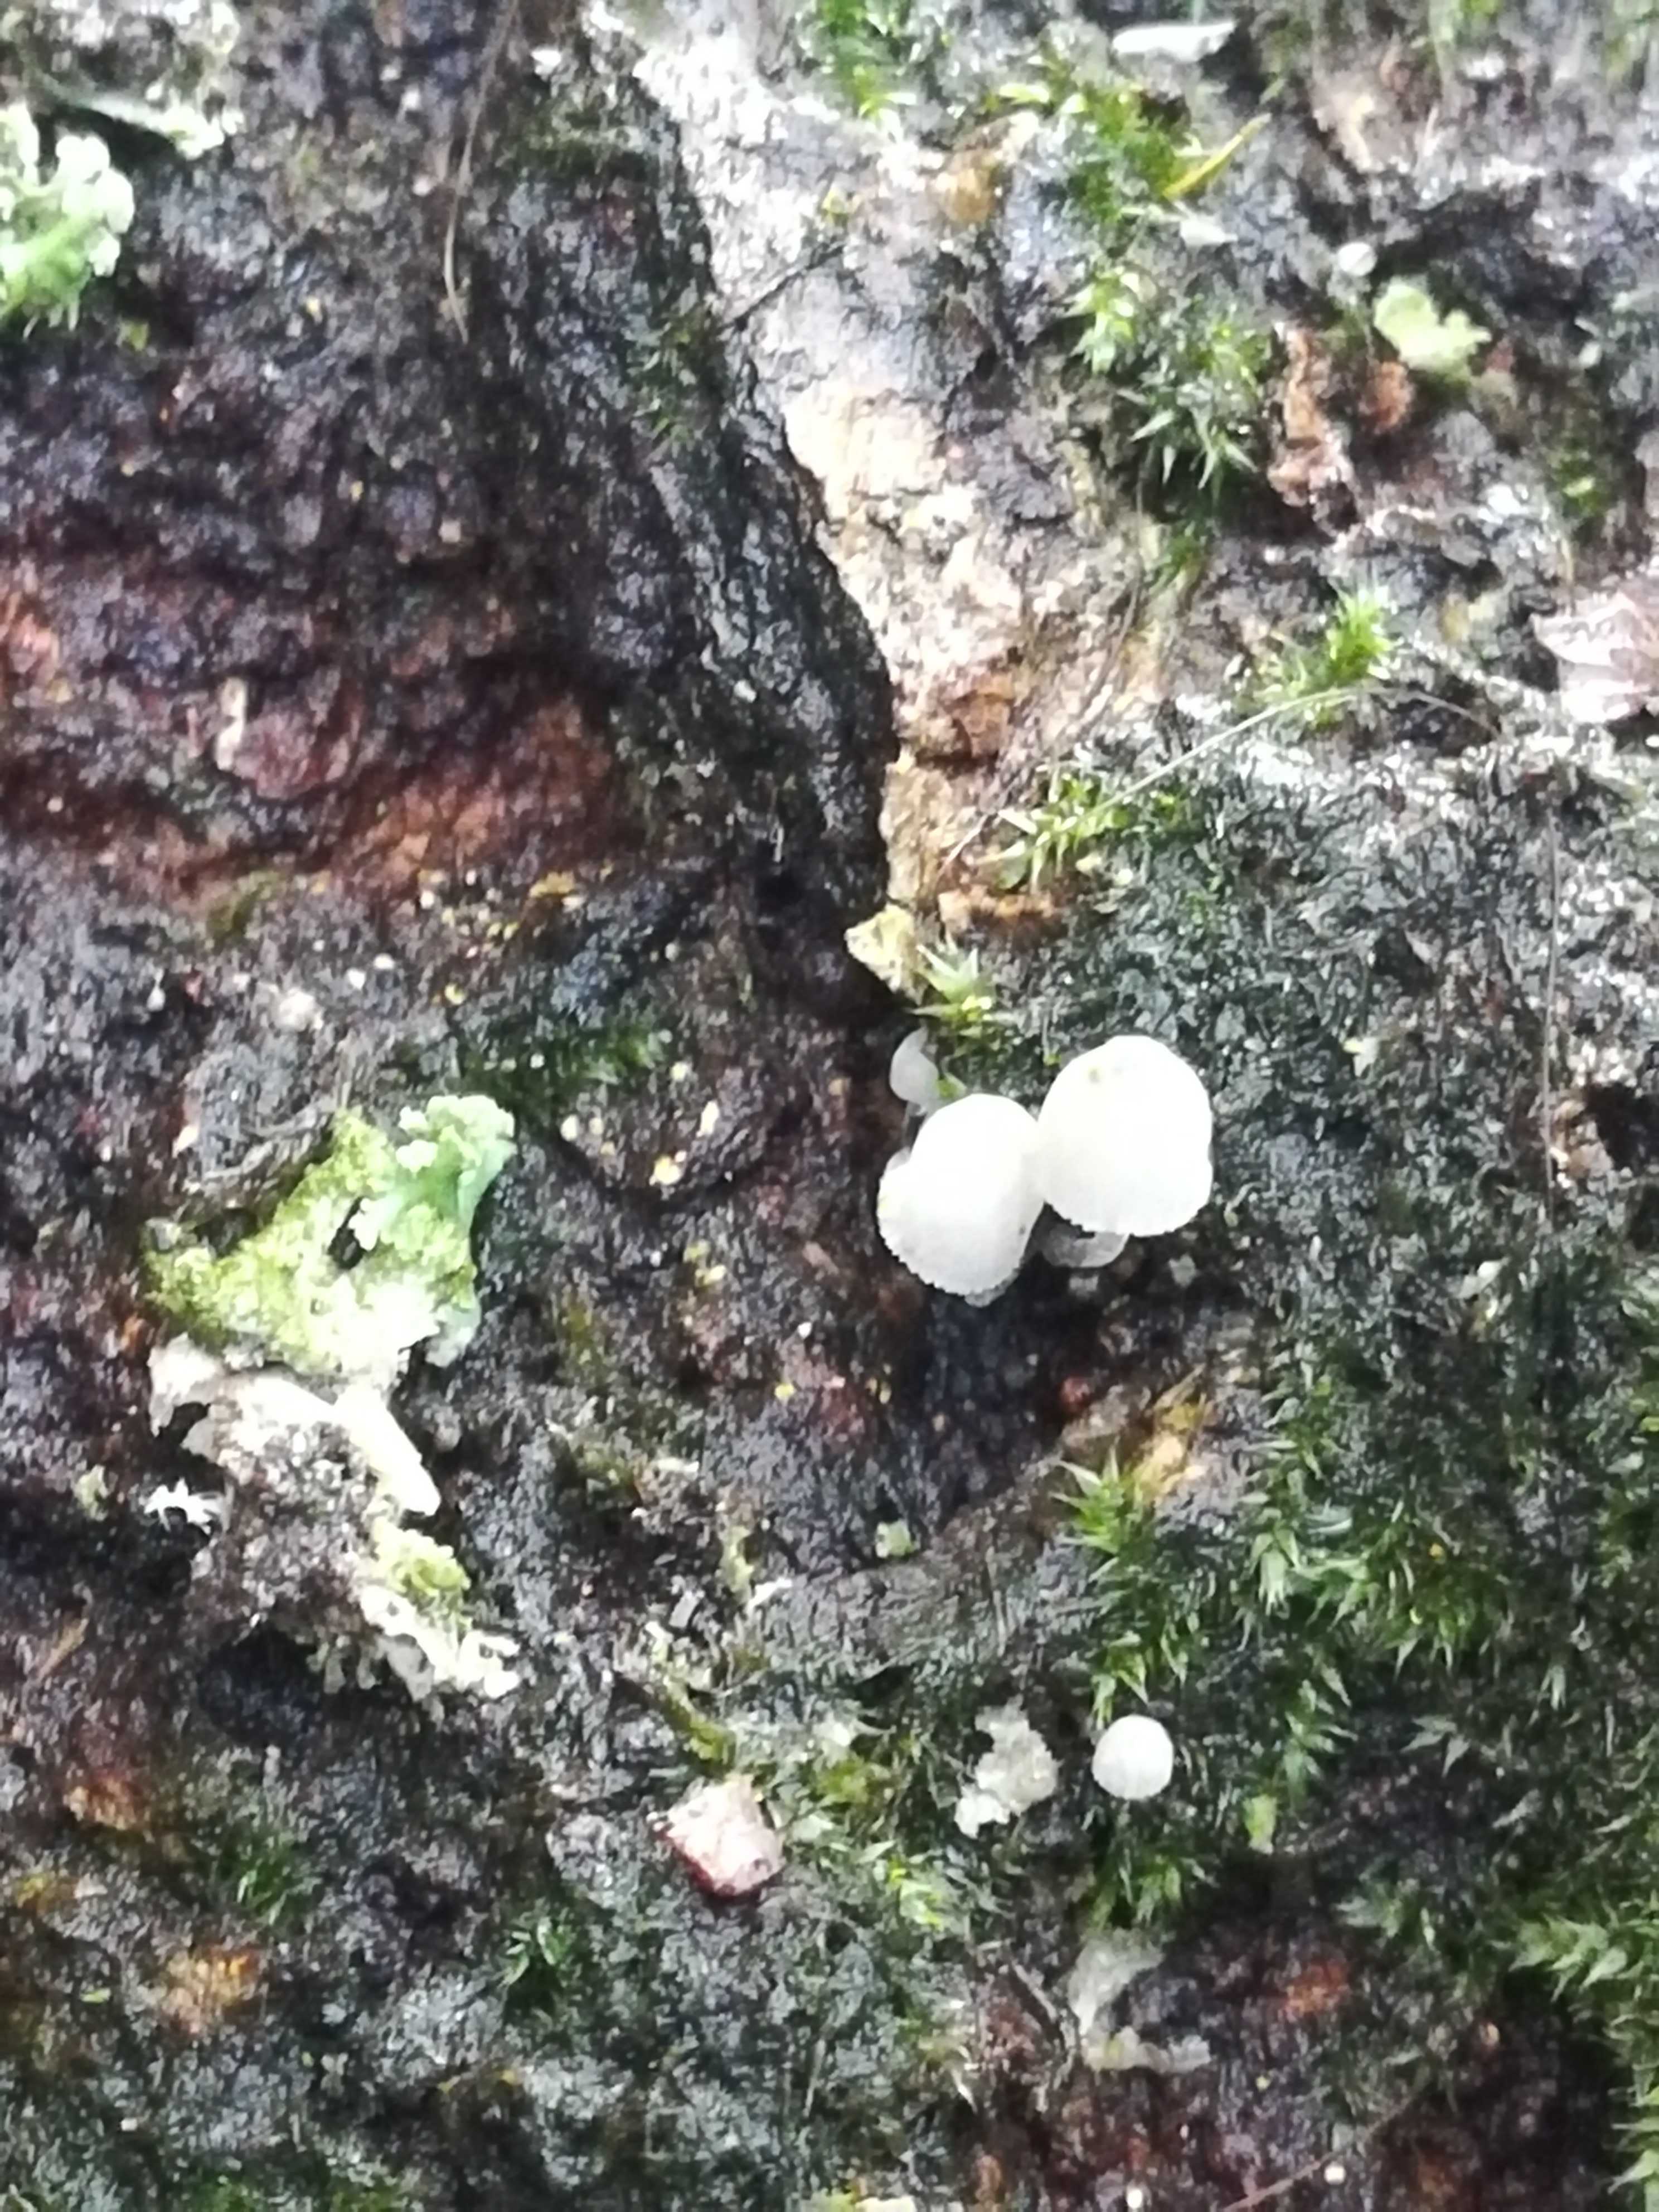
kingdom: Fungi
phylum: Basidiomycota
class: Agaricomycetes
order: Agaricales
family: Mycenaceae
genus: Mycena
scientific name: Mycena pseudocorticola
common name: gråblå bark-huesvamp
